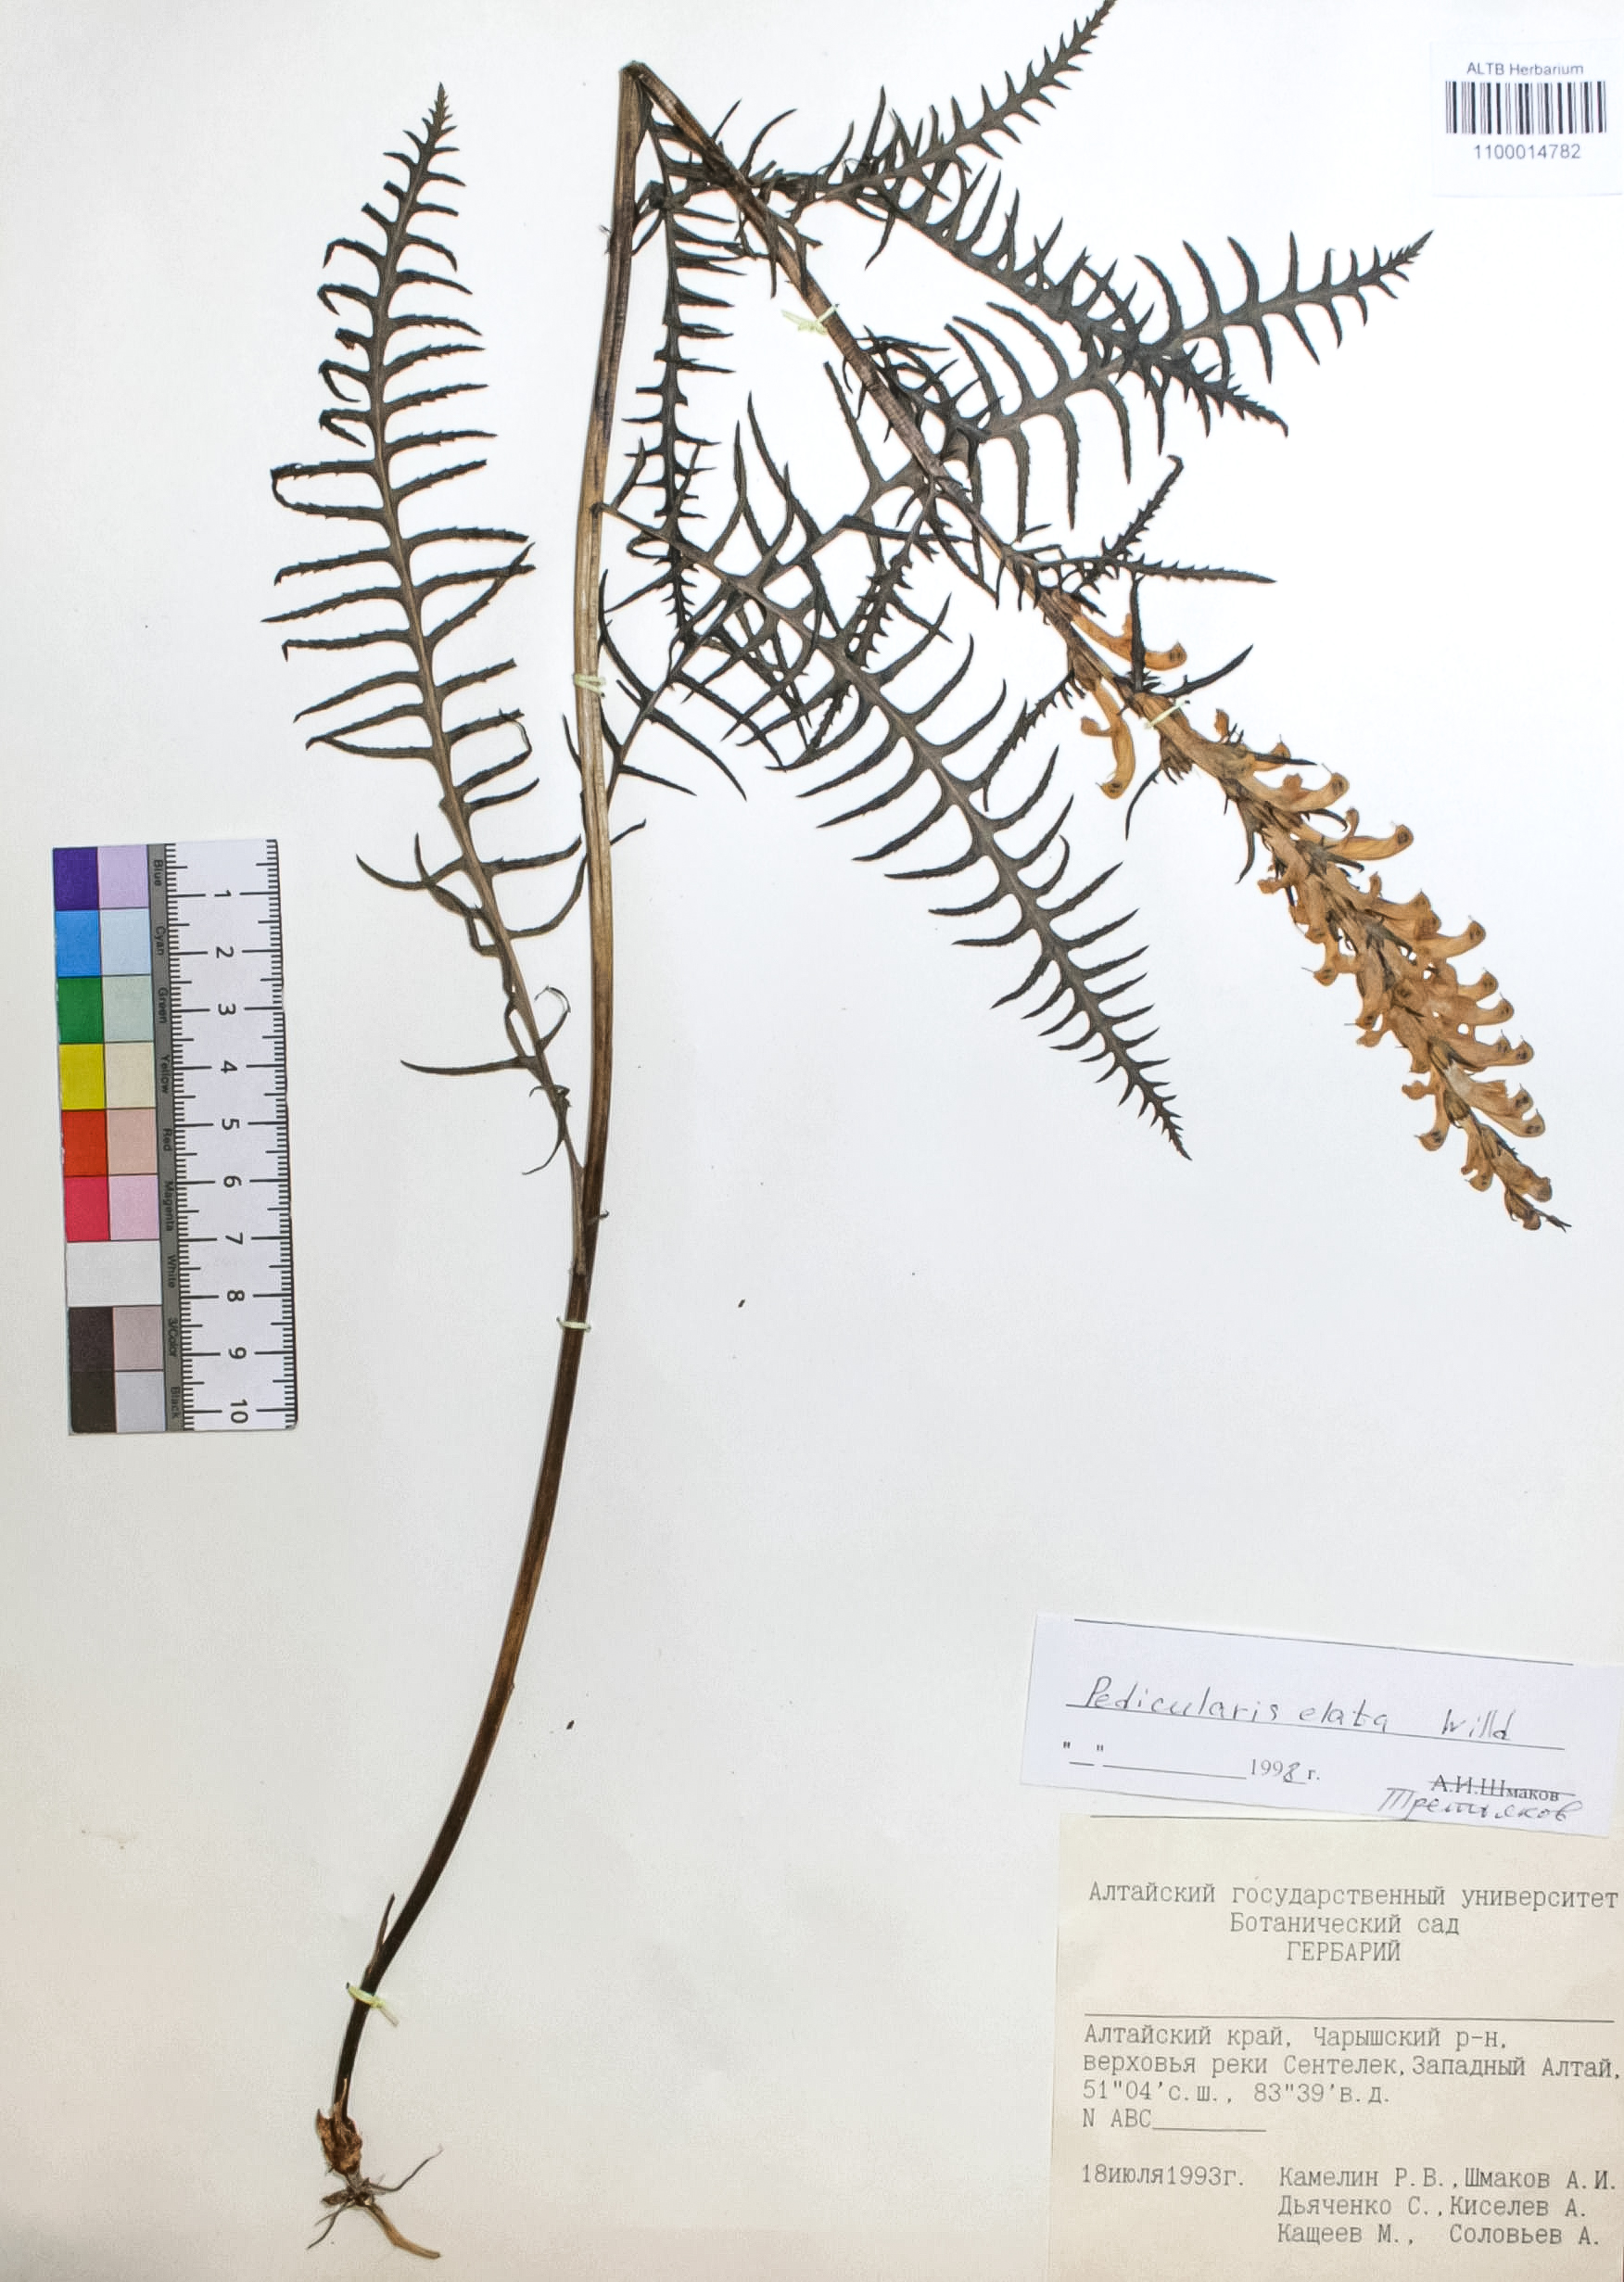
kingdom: Plantae
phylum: Tracheophyta
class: Magnoliopsida
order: Lamiales
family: Orobanchaceae
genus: Pedicularis
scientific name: Pedicularis elata
